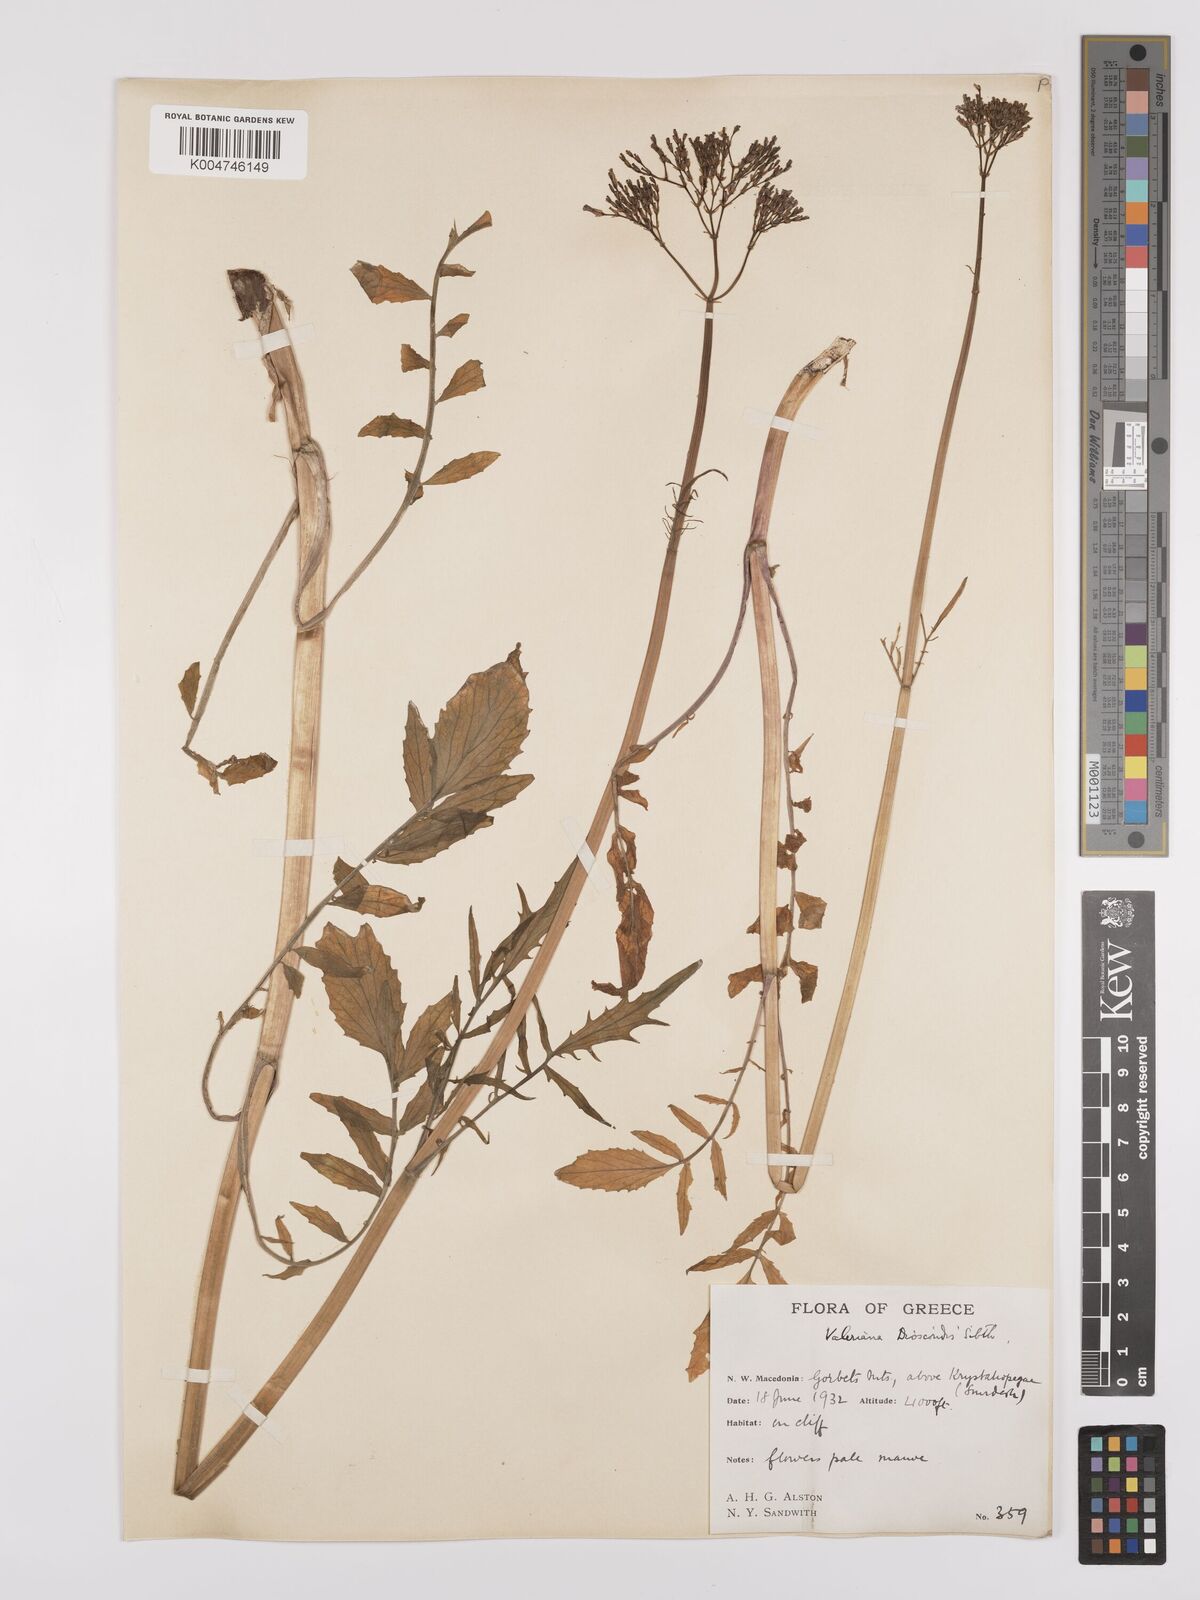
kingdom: Plantae
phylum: Tracheophyta
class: Magnoliopsida
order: Dipsacales
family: Caprifoliaceae
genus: Valeriana
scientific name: Valeriana dioscoridis
